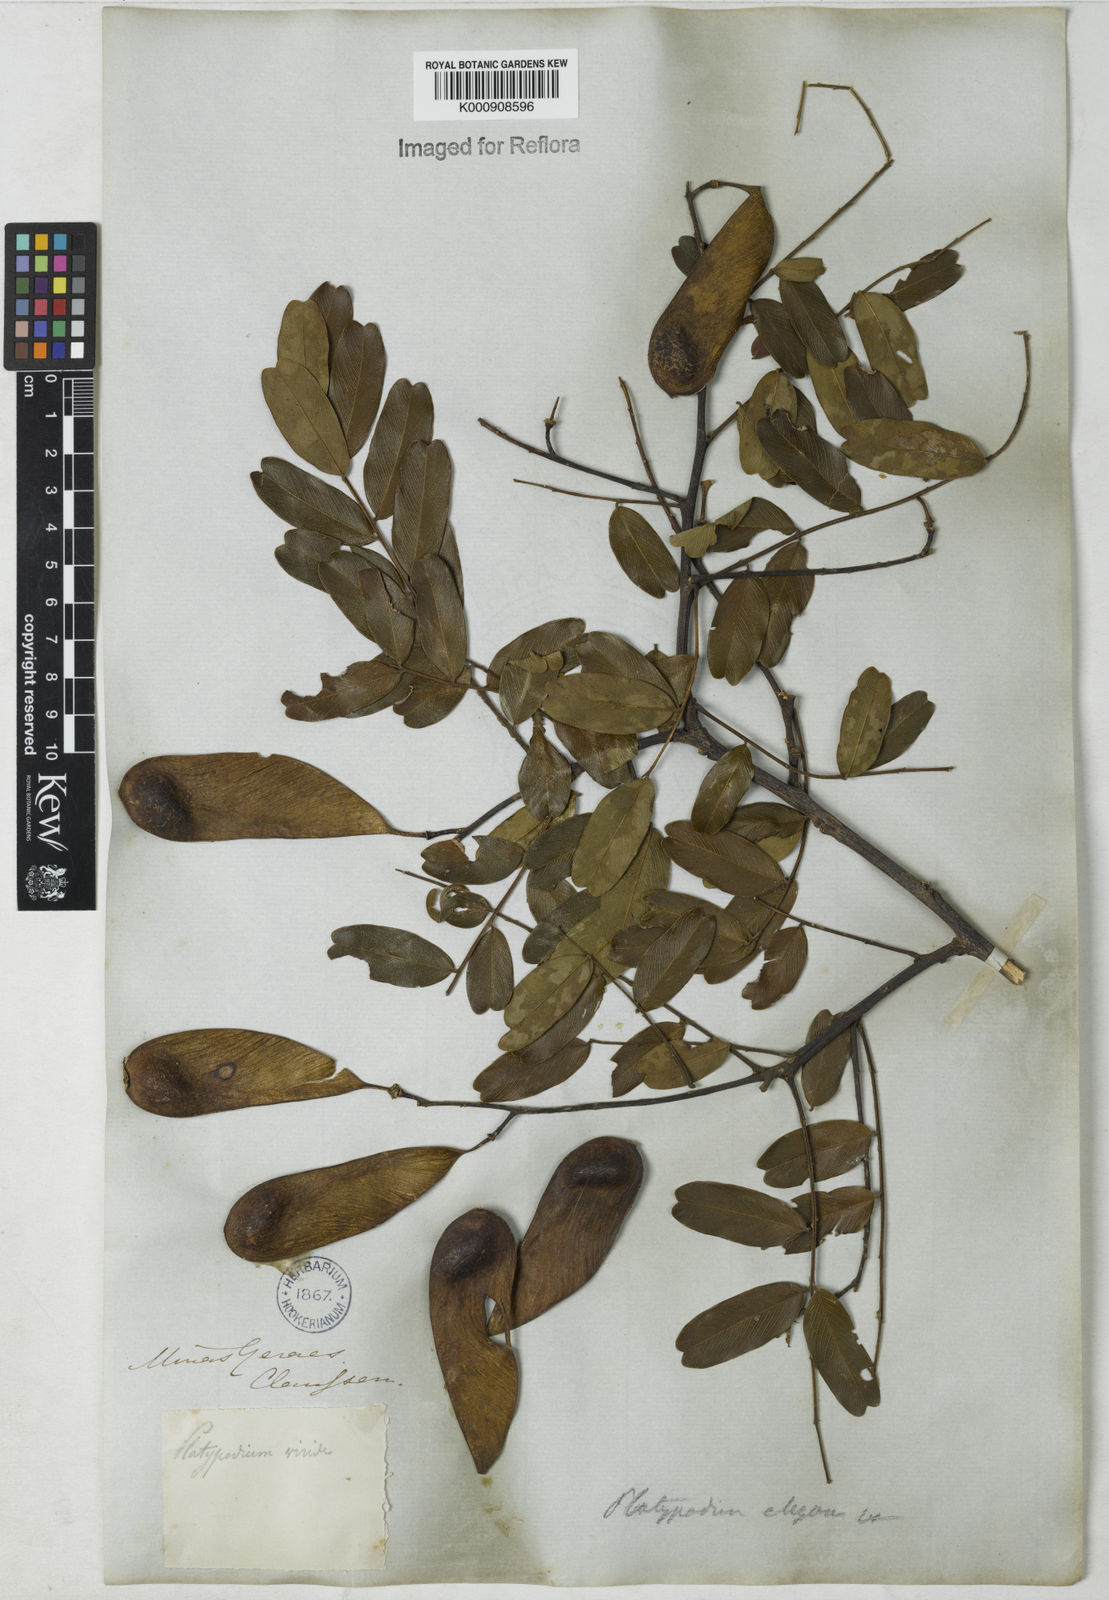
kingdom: Plantae
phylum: Tracheophyta
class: Magnoliopsida
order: Fabales
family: Fabaceae
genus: Platypodium
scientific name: Platypodium elegans
